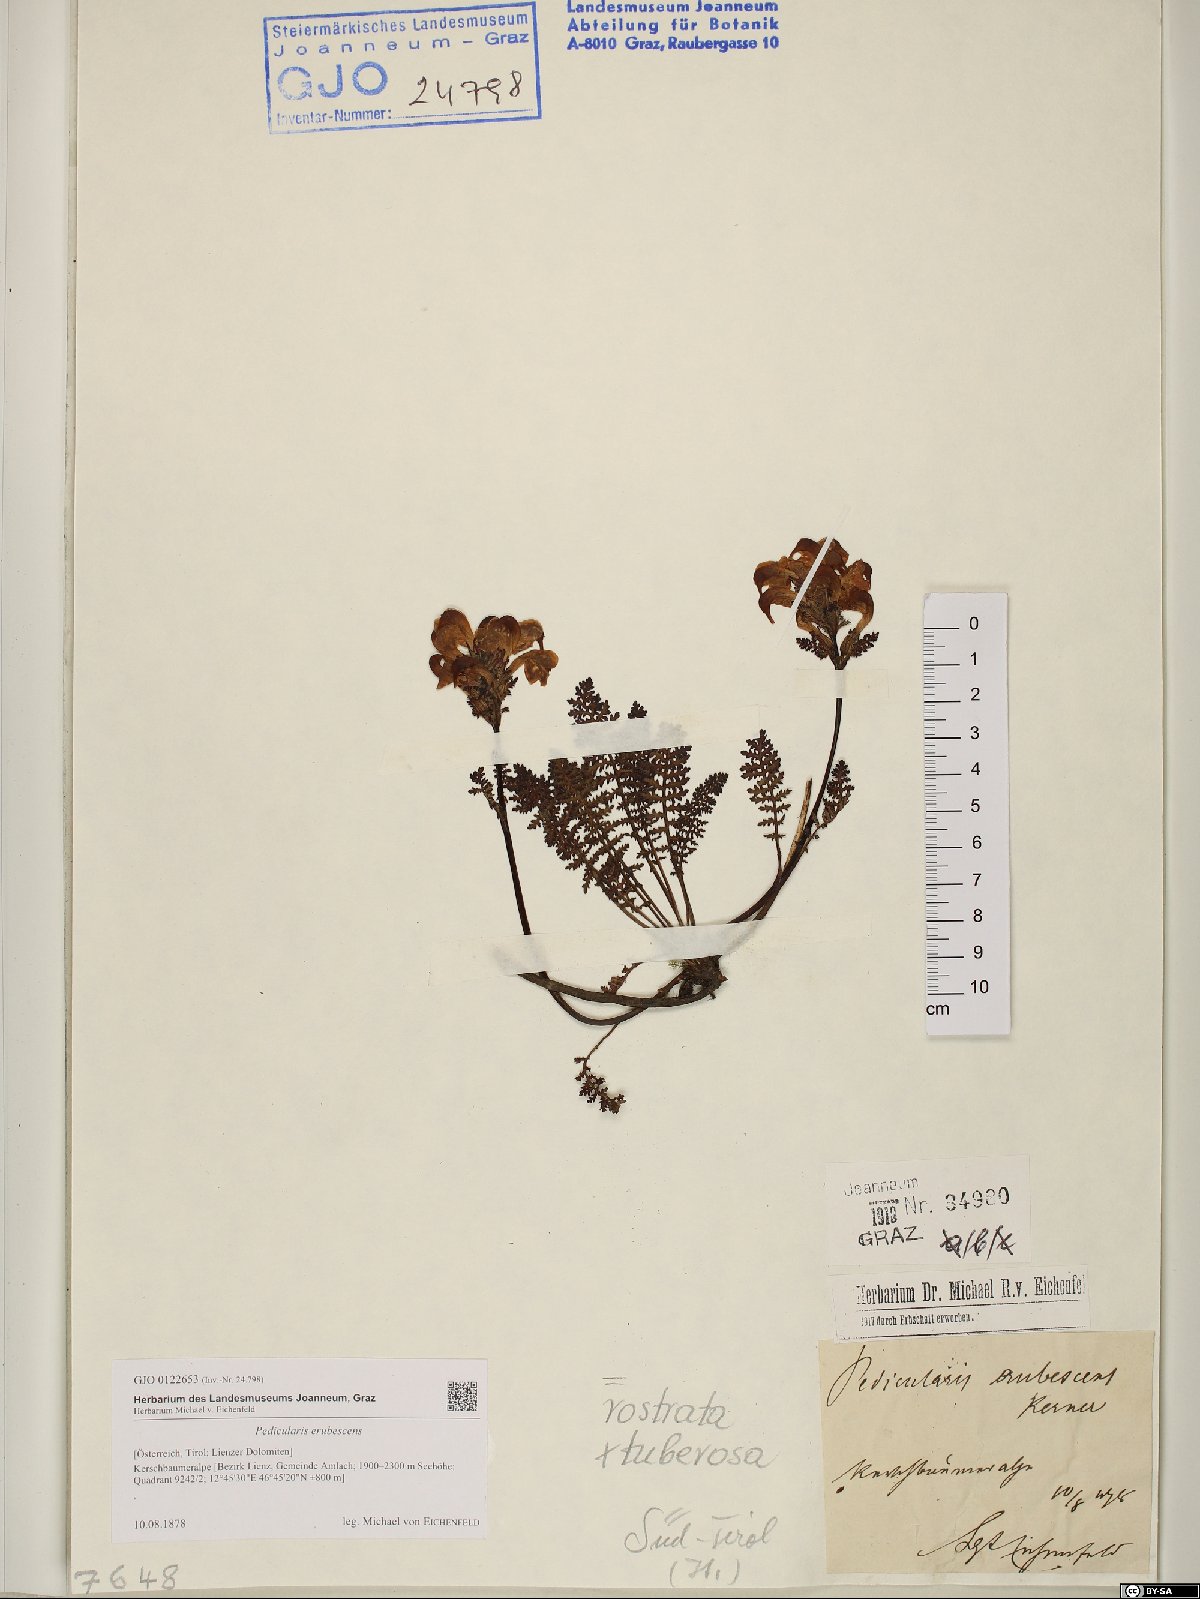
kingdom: Plantae
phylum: Tracheophyta
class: Magnoliopsida
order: Lamiales
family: Scrophulariaceae
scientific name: Scrophulariaceae
